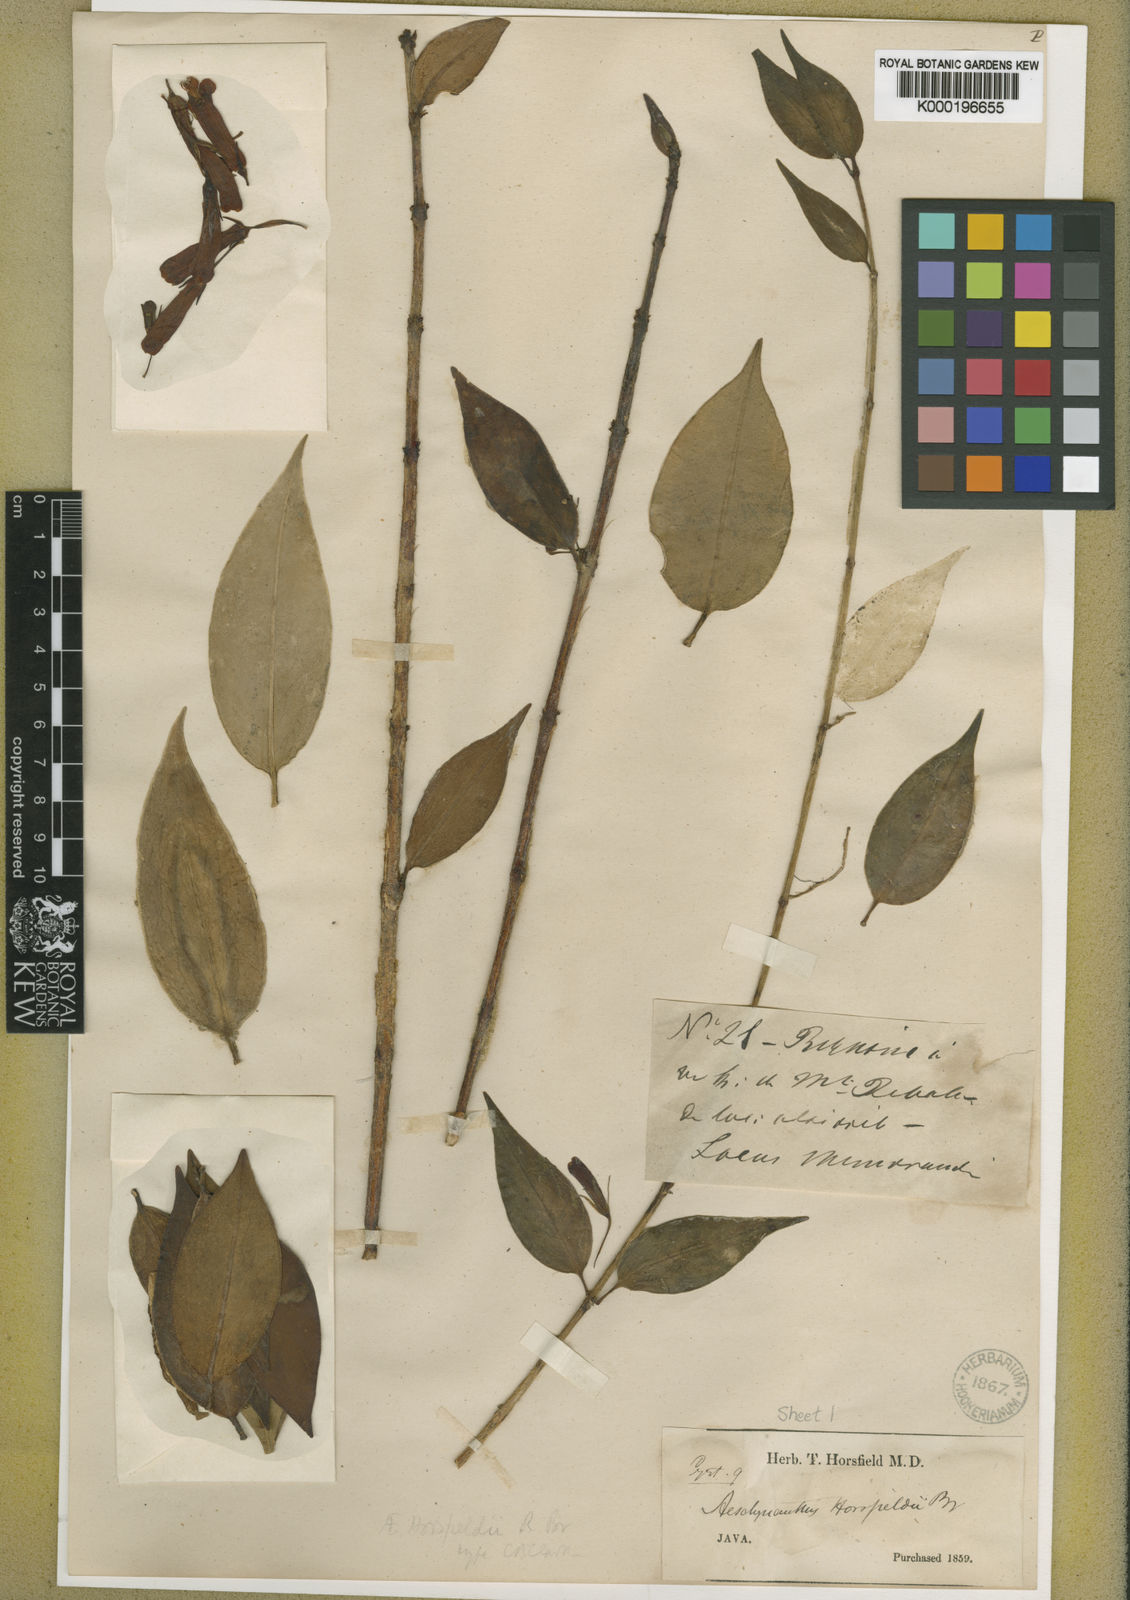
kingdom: Plantae
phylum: Tracheophyta
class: Magnoliopsida
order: Lamiales
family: Gesneriaceae
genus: Aeschynanthus
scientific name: Aeschynanthus horsfieldii
